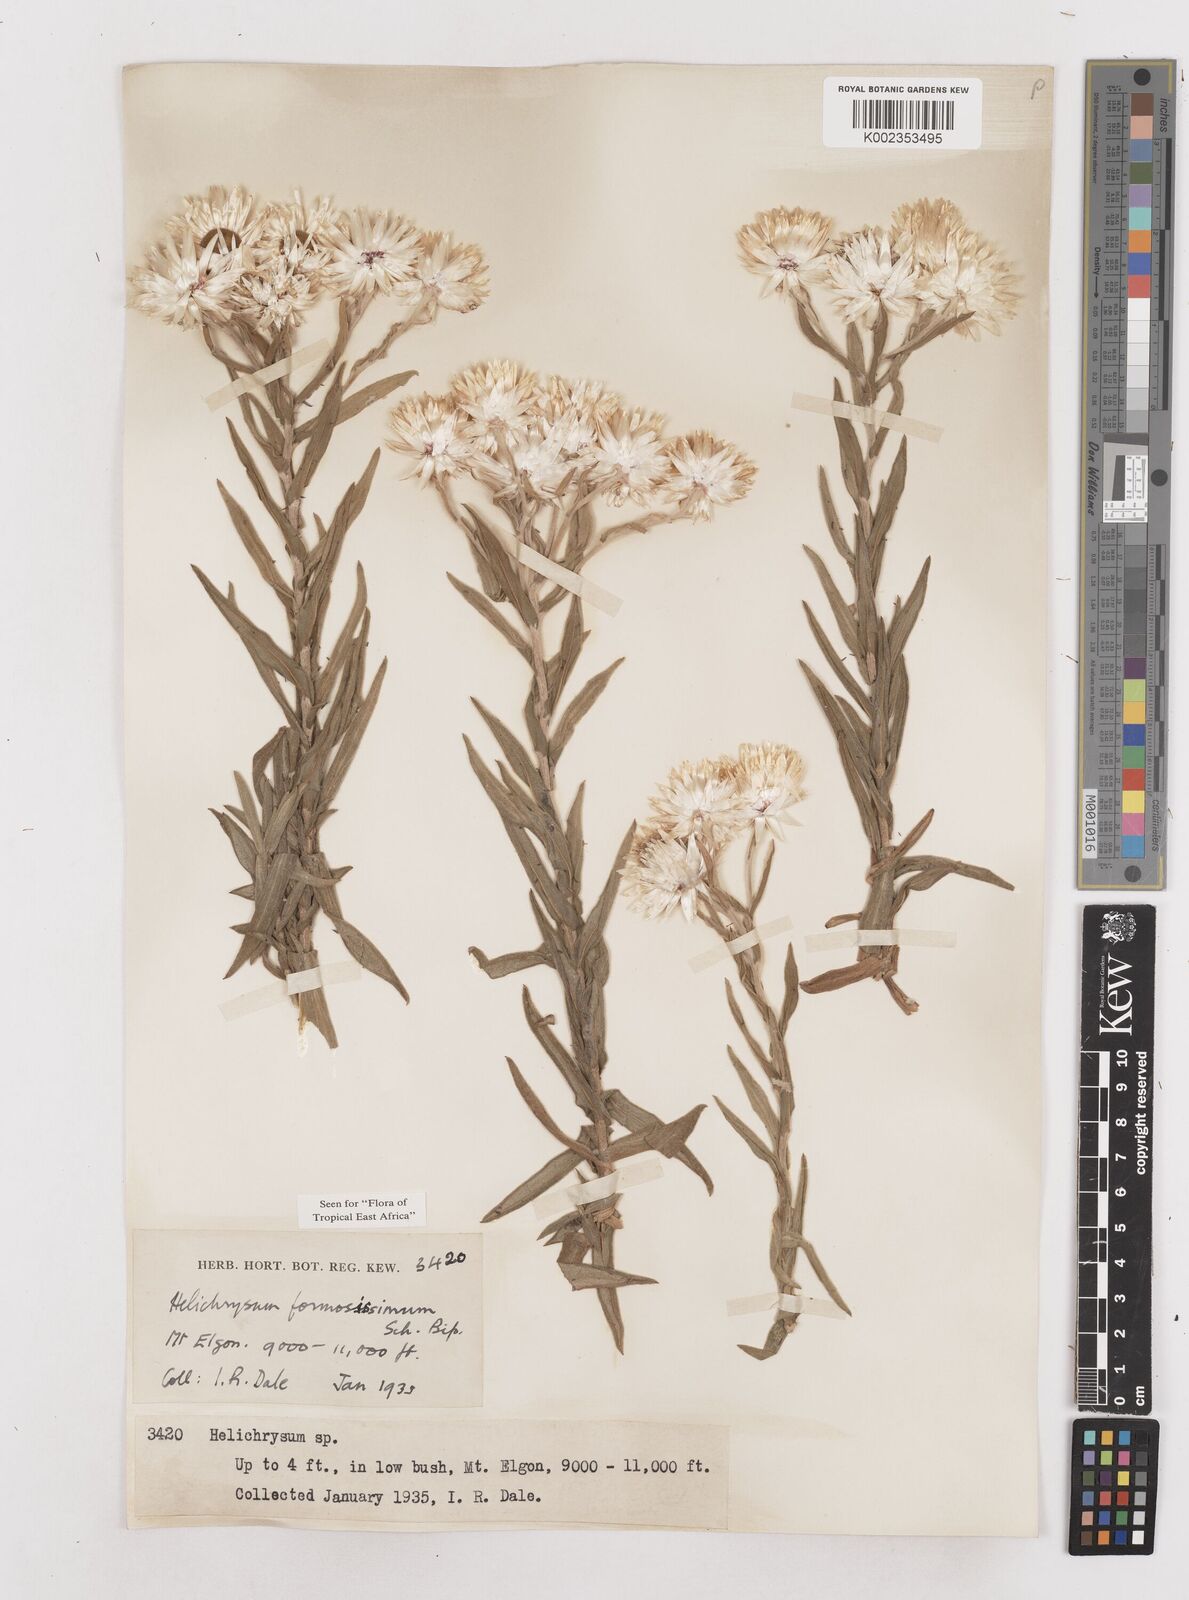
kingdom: Plantae
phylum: Tracheophyta
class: Magnoliopsida
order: Asterales
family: Asteraceae
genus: Helichrysum
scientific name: Helichrysum formosissimum
